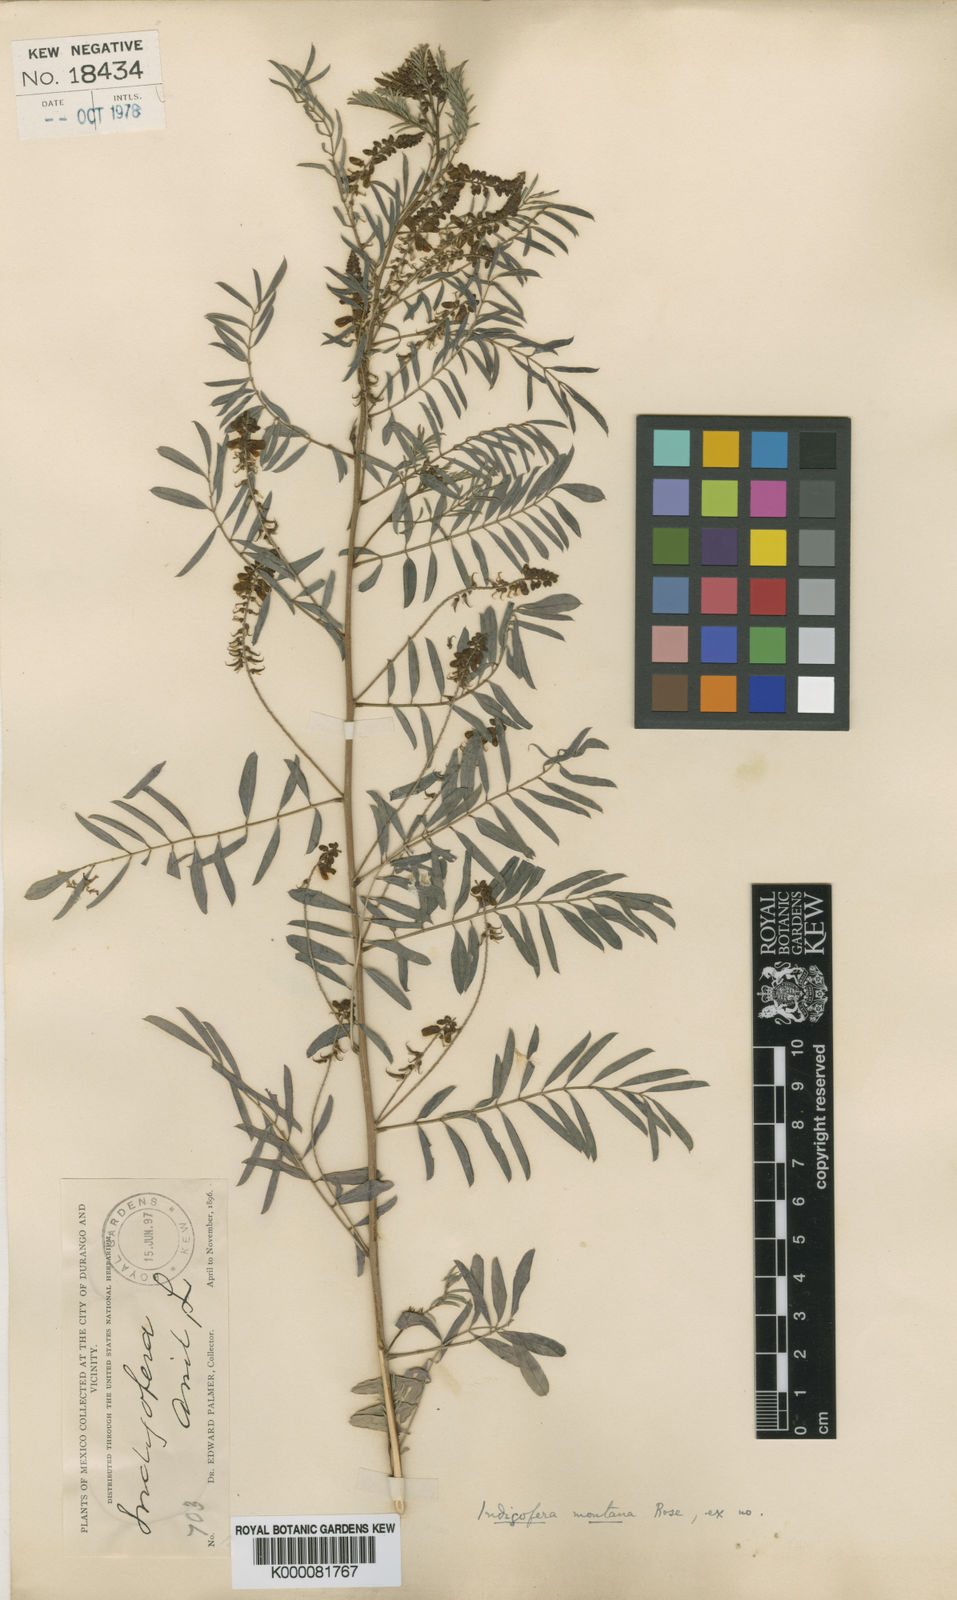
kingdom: Plantae
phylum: Tracheophyta
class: Magnoliopsida
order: Fabales
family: Fabaceae
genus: Indigofera
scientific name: Indigofera montana
